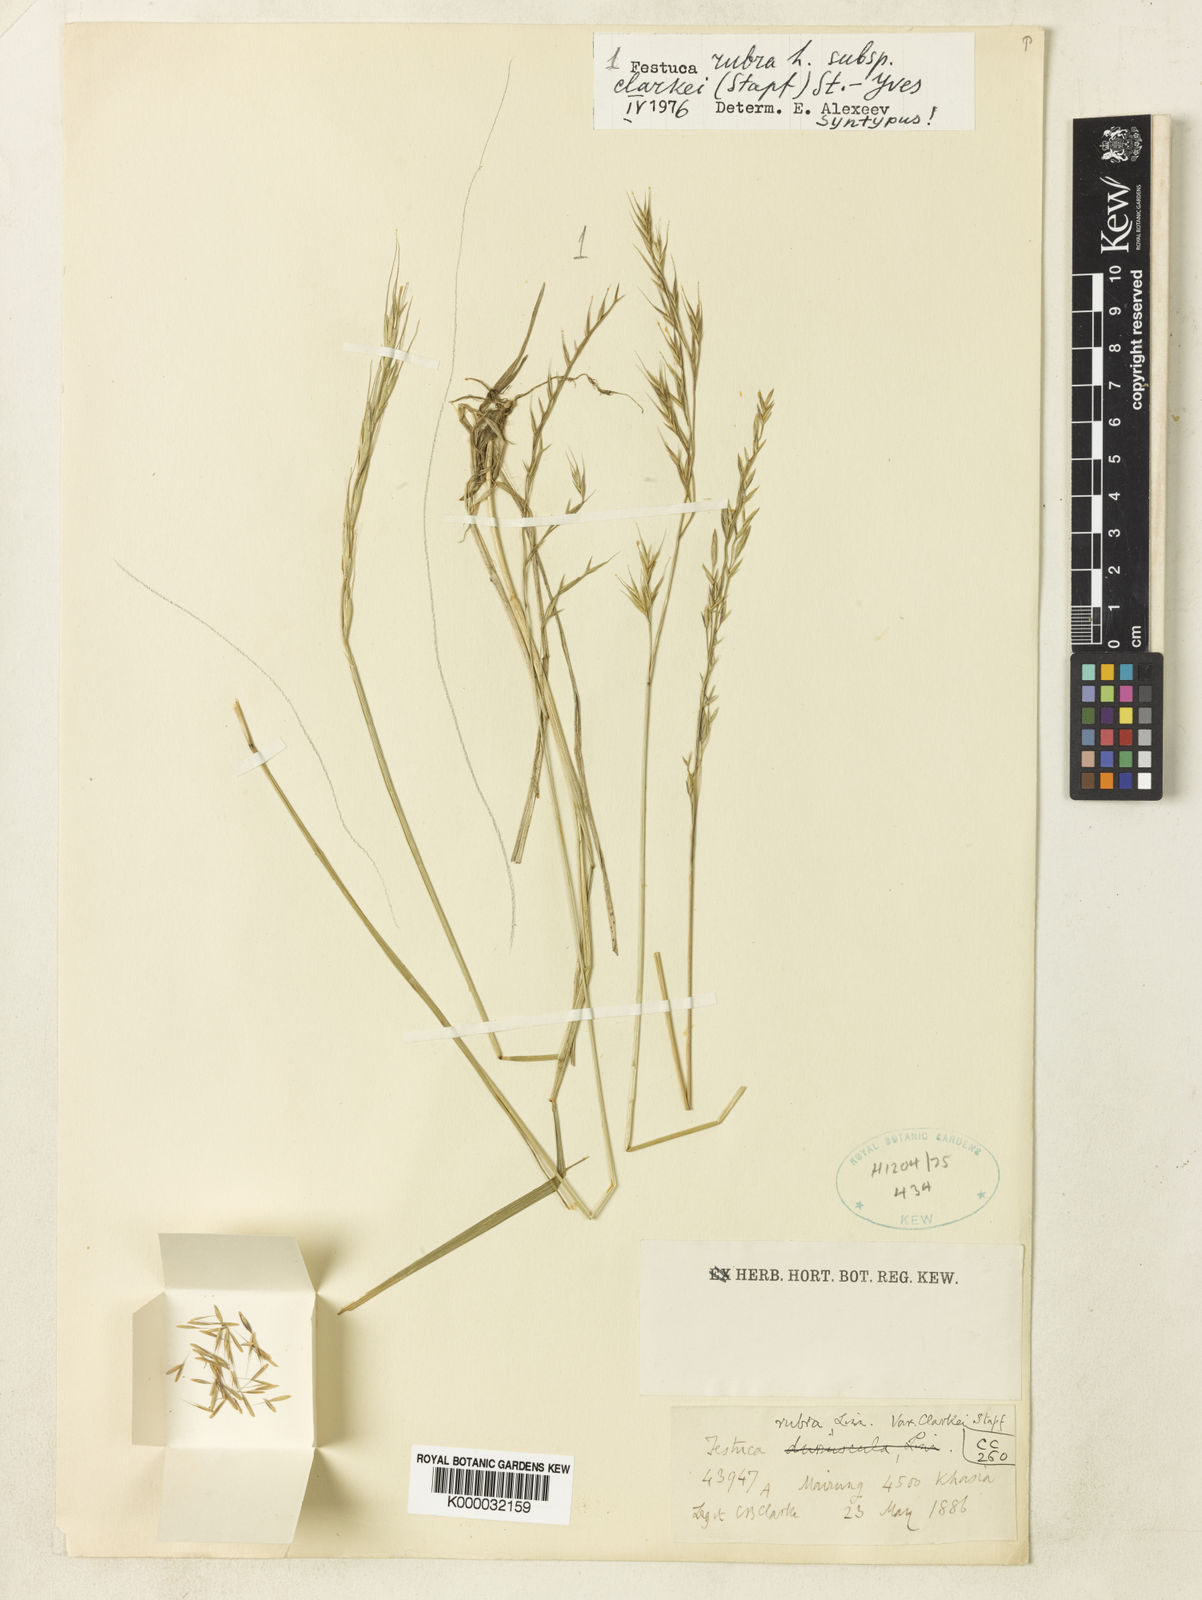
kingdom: Plantae
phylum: Tracheophyta
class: Liliopsida
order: Poales
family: Poaceae
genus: Festuca
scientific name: Festuca rubra
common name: Red fescue
